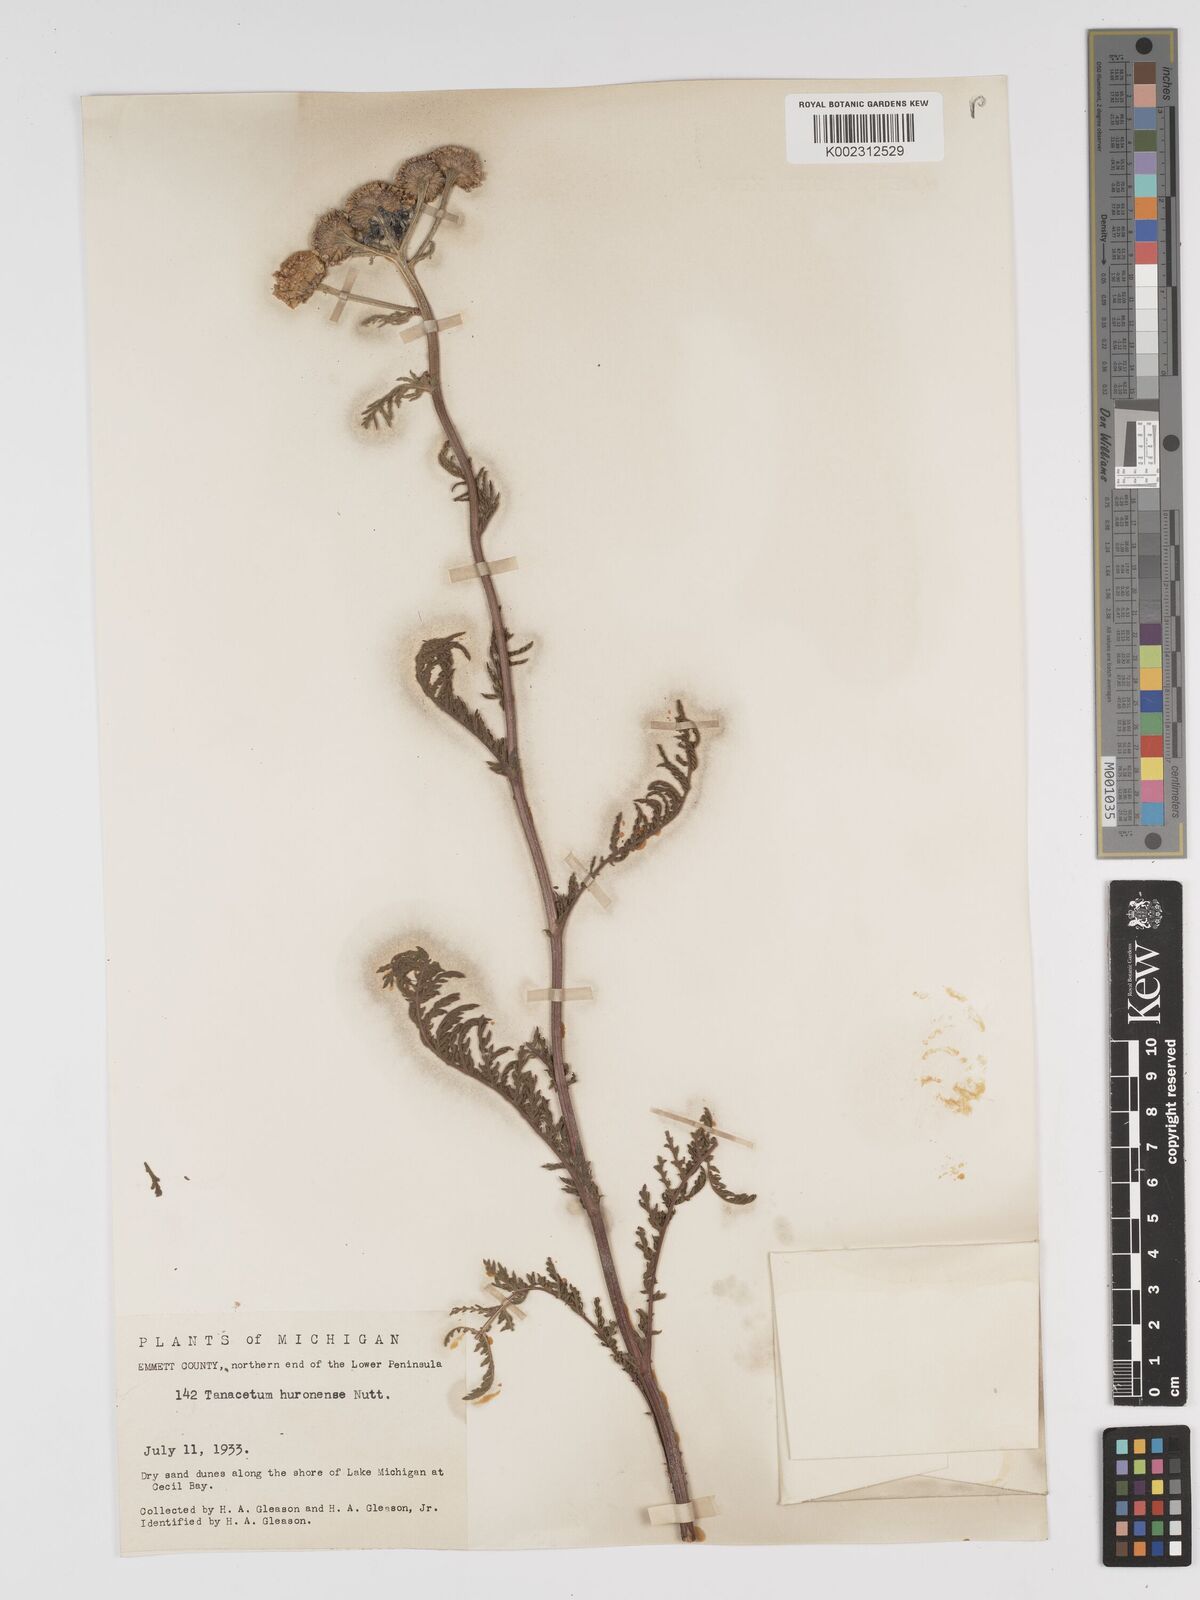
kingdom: Plantae
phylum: Tracheophyta
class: Magnoliopsida
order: Asterales
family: Asteraceae
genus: Tanacetum
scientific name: Tanacetum bipinnatum
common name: Dwarf tansy
